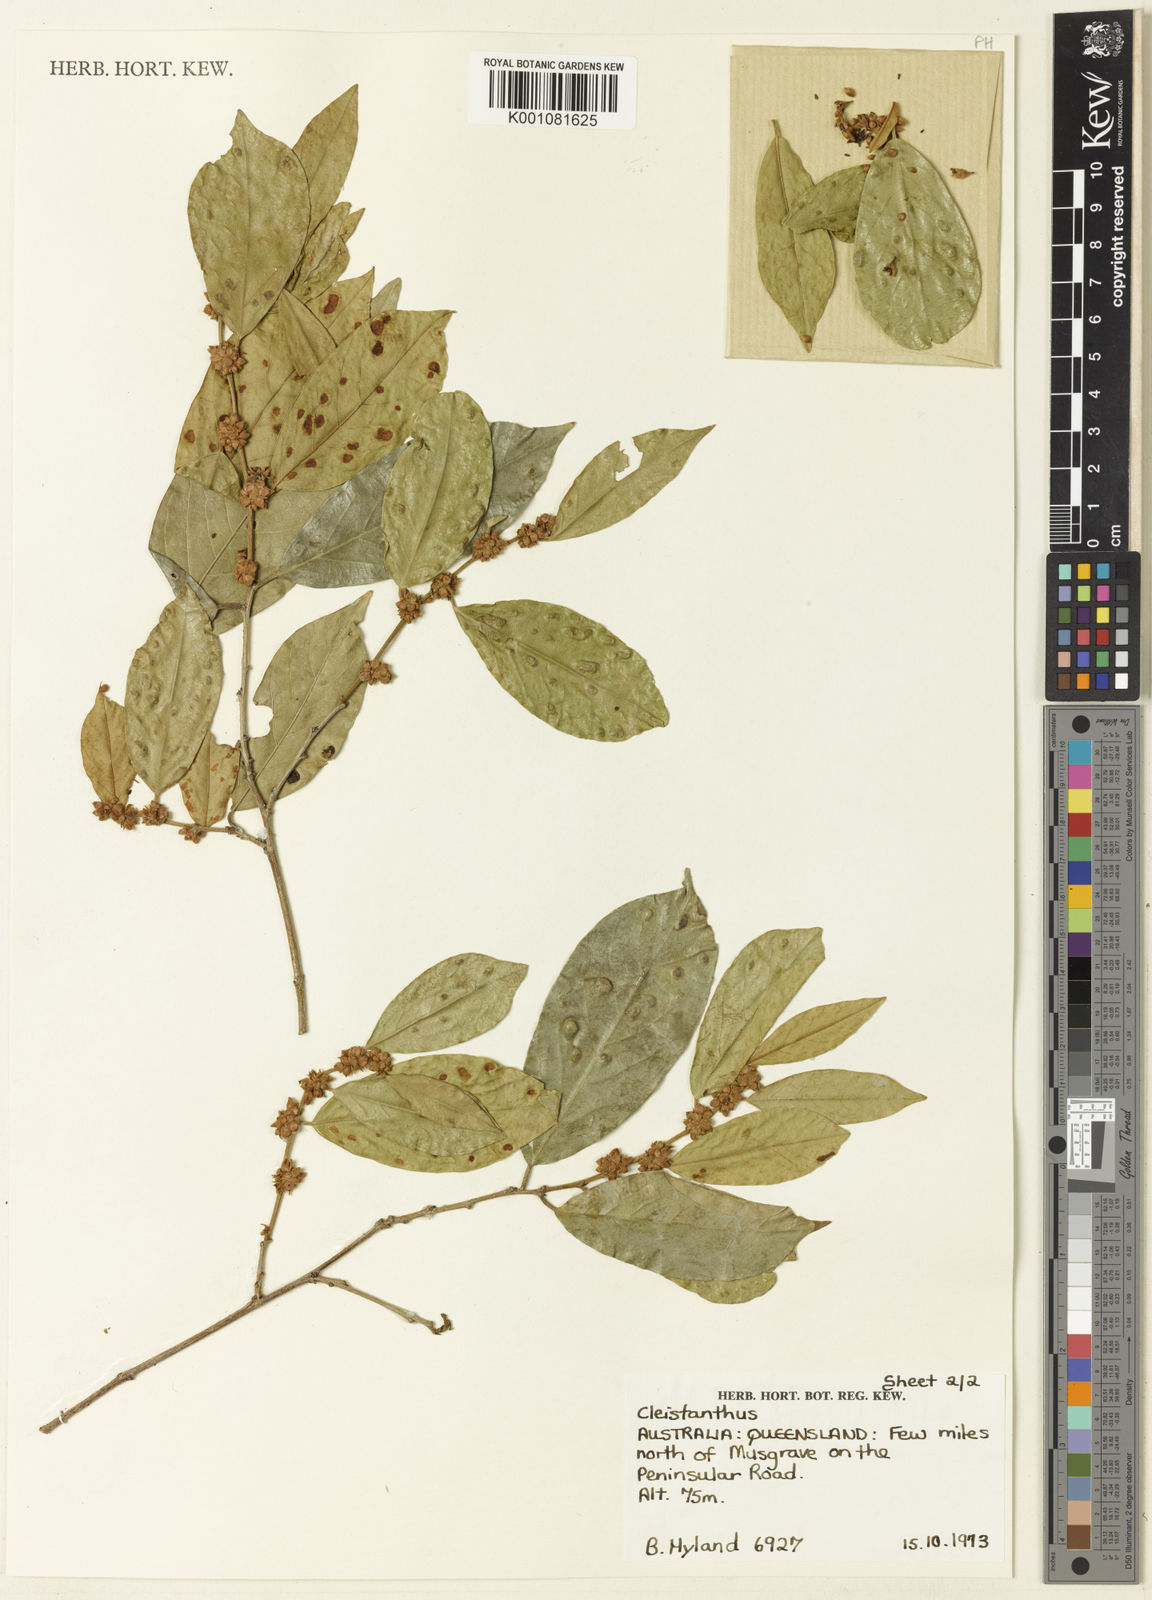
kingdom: Plantae
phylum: Tracheophyta
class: Magnoliopsida
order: Malpighiales
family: Phyllanthaceae
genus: Cleistanthus
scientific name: Cleistanthus peninsularis
